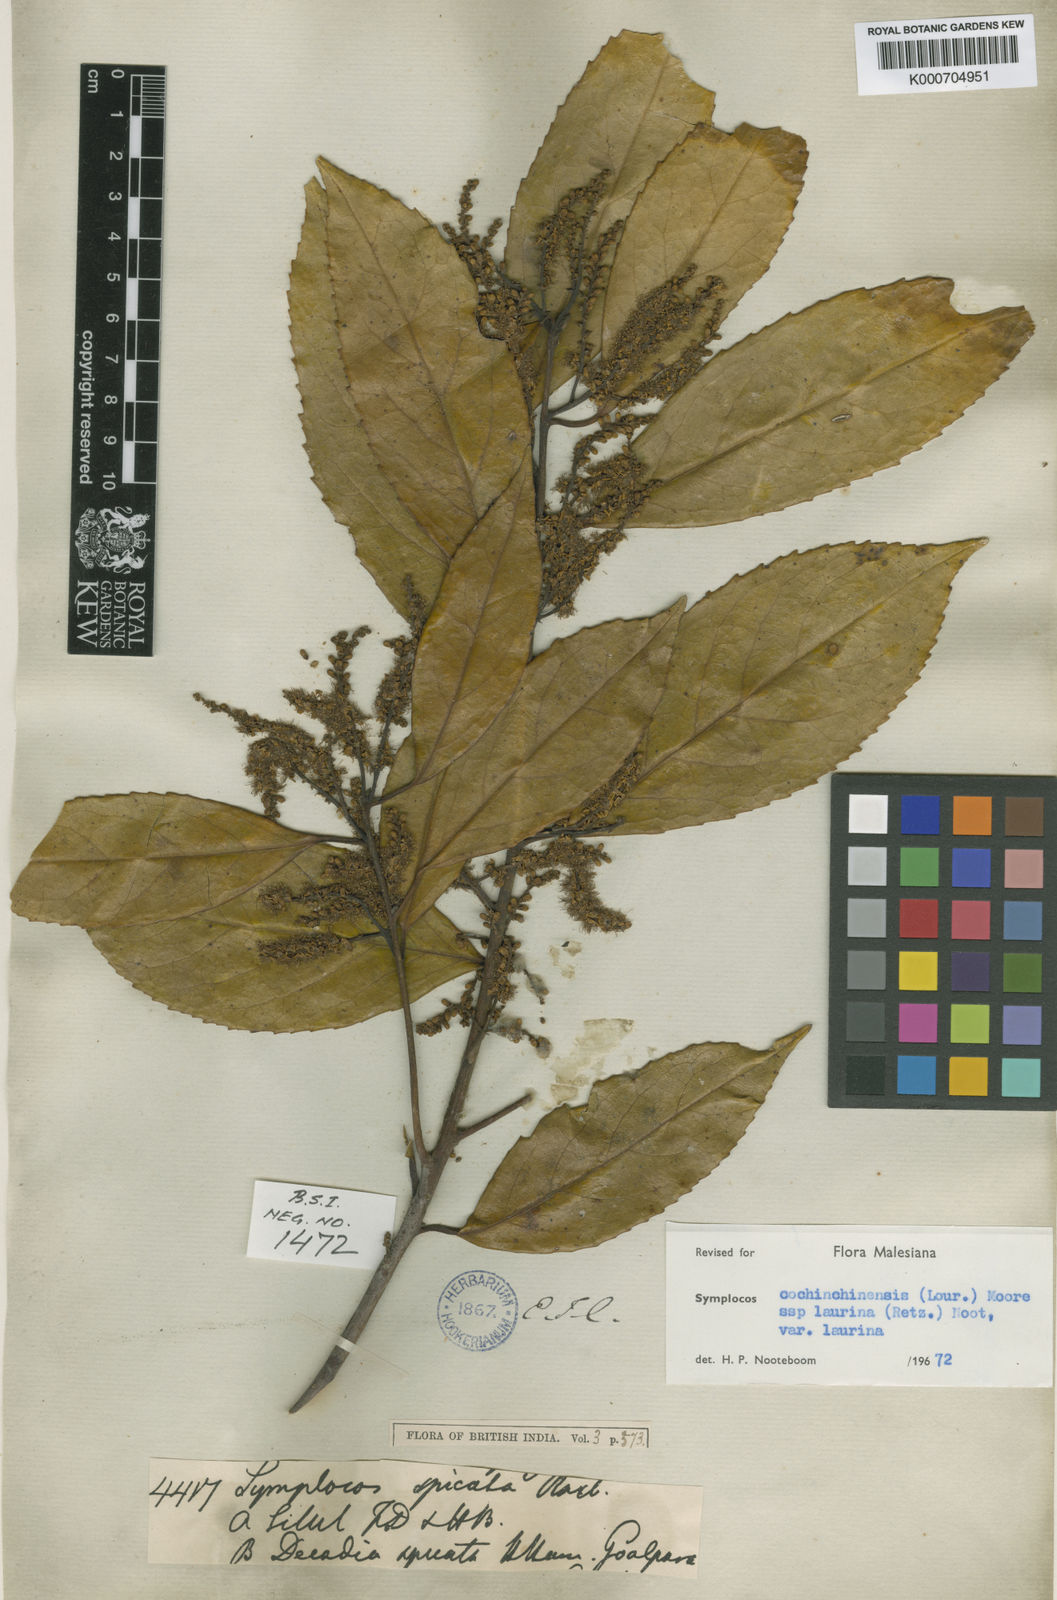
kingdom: Plantae
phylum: Tracheophyta
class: Magnoliopsida
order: Ericales
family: Symplocaceae
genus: Symplocos
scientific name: Symplocos acuminata
